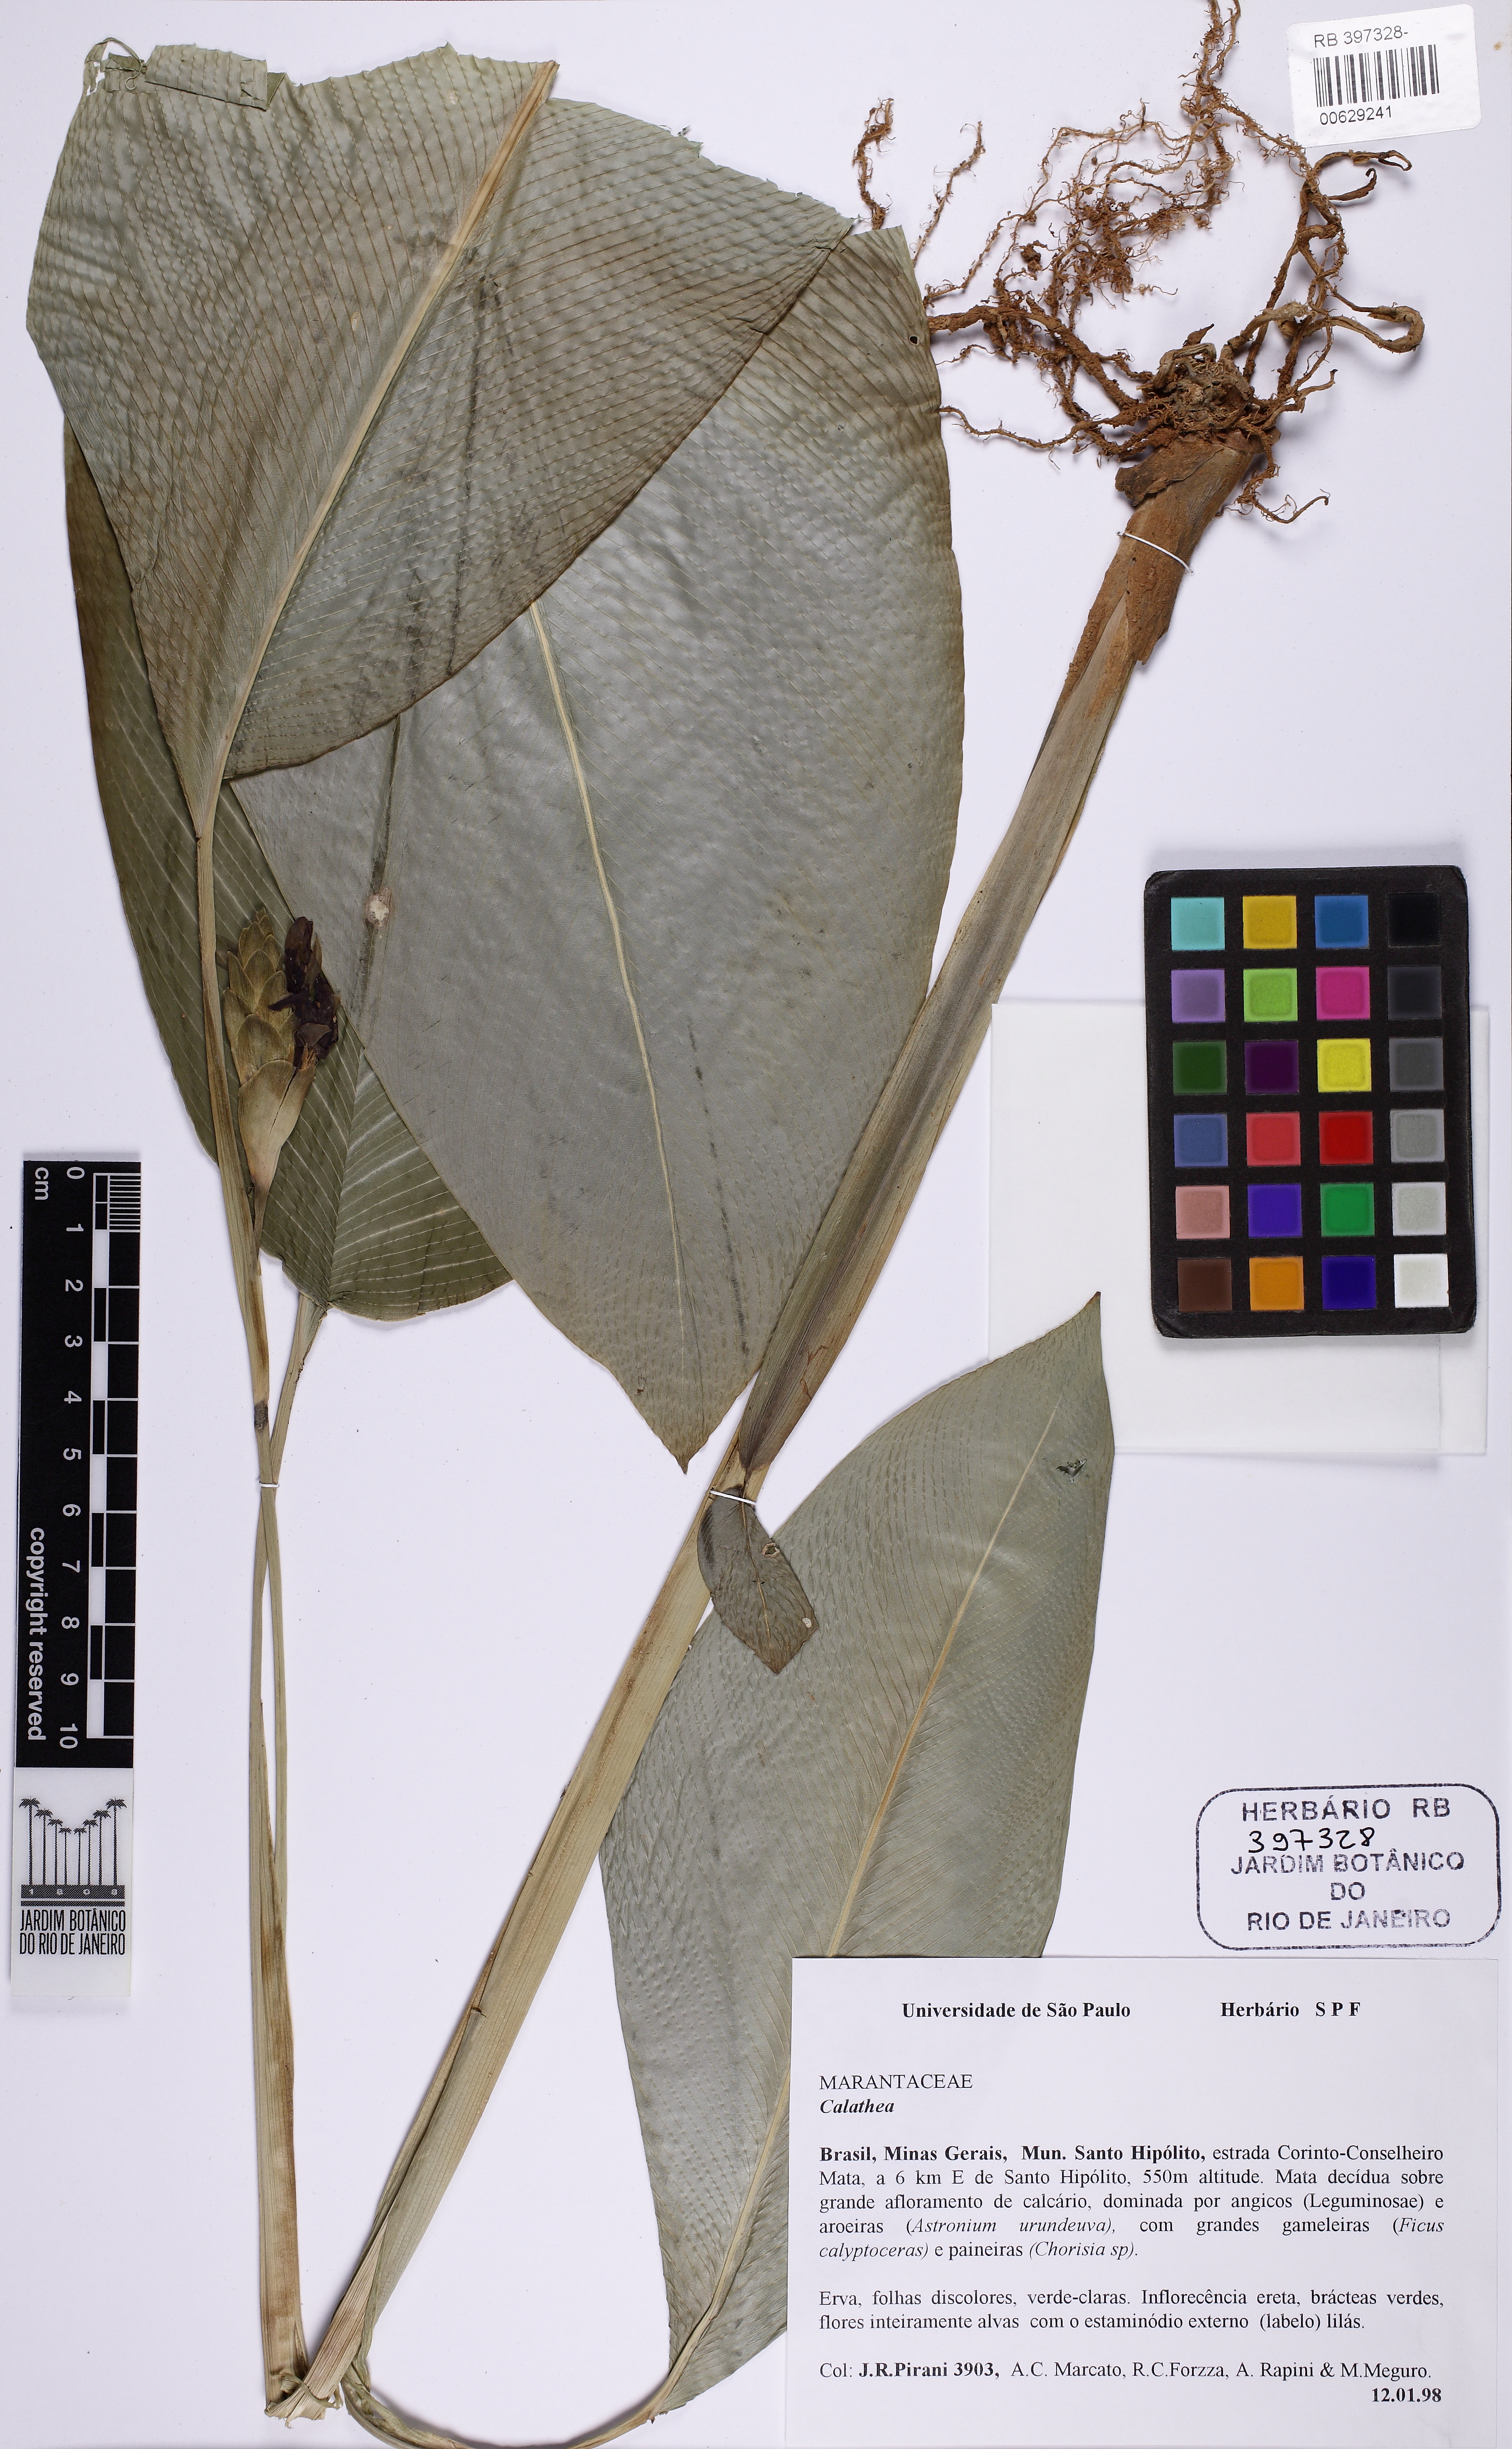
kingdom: Plantae
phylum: Tracheophyta
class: Liliopsida
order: Zingiberales
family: Marantaceae
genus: Calathea
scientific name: Calathea
